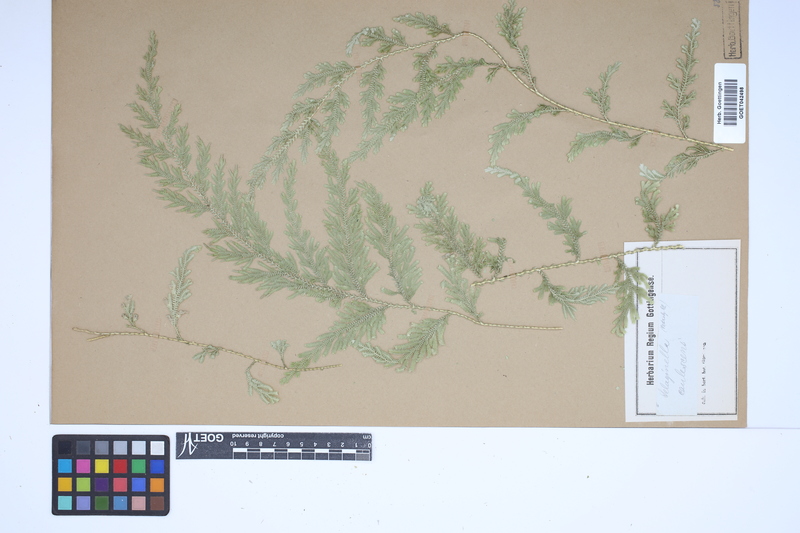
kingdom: Plantae
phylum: Tracheophyta
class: Lycopodiopsida
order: Selaginellales
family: Selaginellaceae
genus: Selaginella
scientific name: Selaginella involvens
